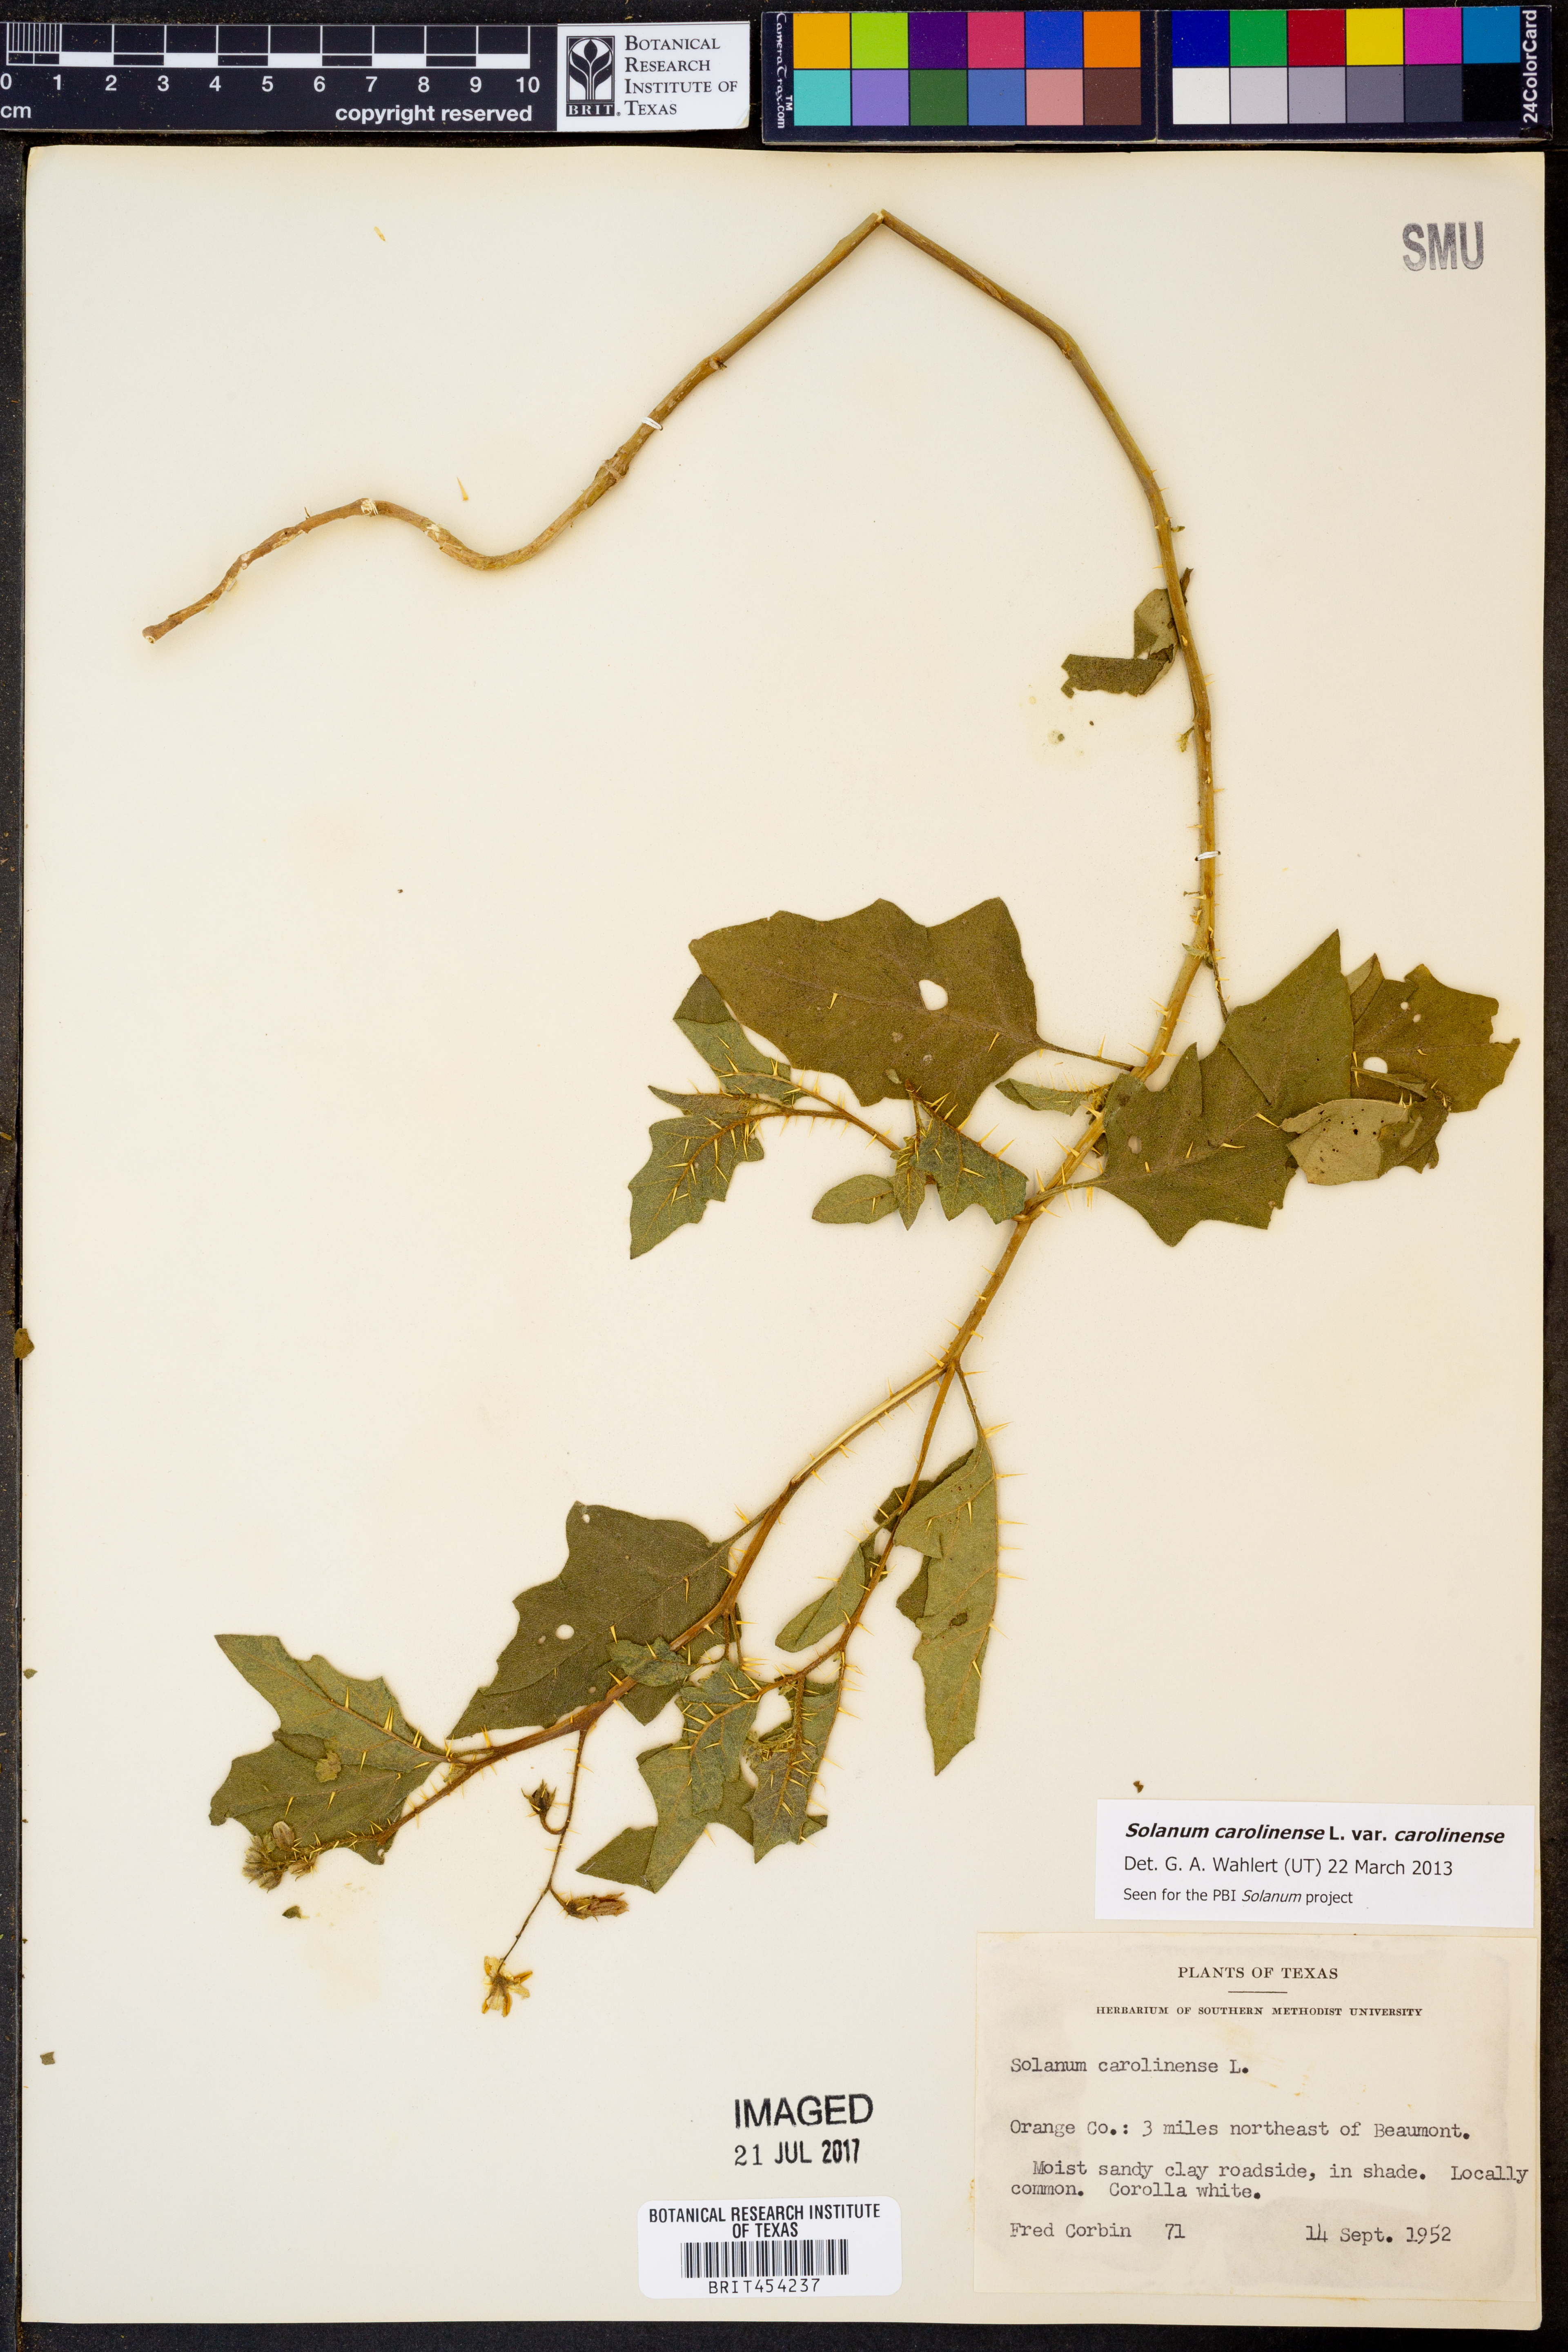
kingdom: Plantae
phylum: Tracheophyta
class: Magnoliopsida
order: Solanales
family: Solanaceae
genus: Solanum
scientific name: Solanum carolinense
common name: Horse-nettle
